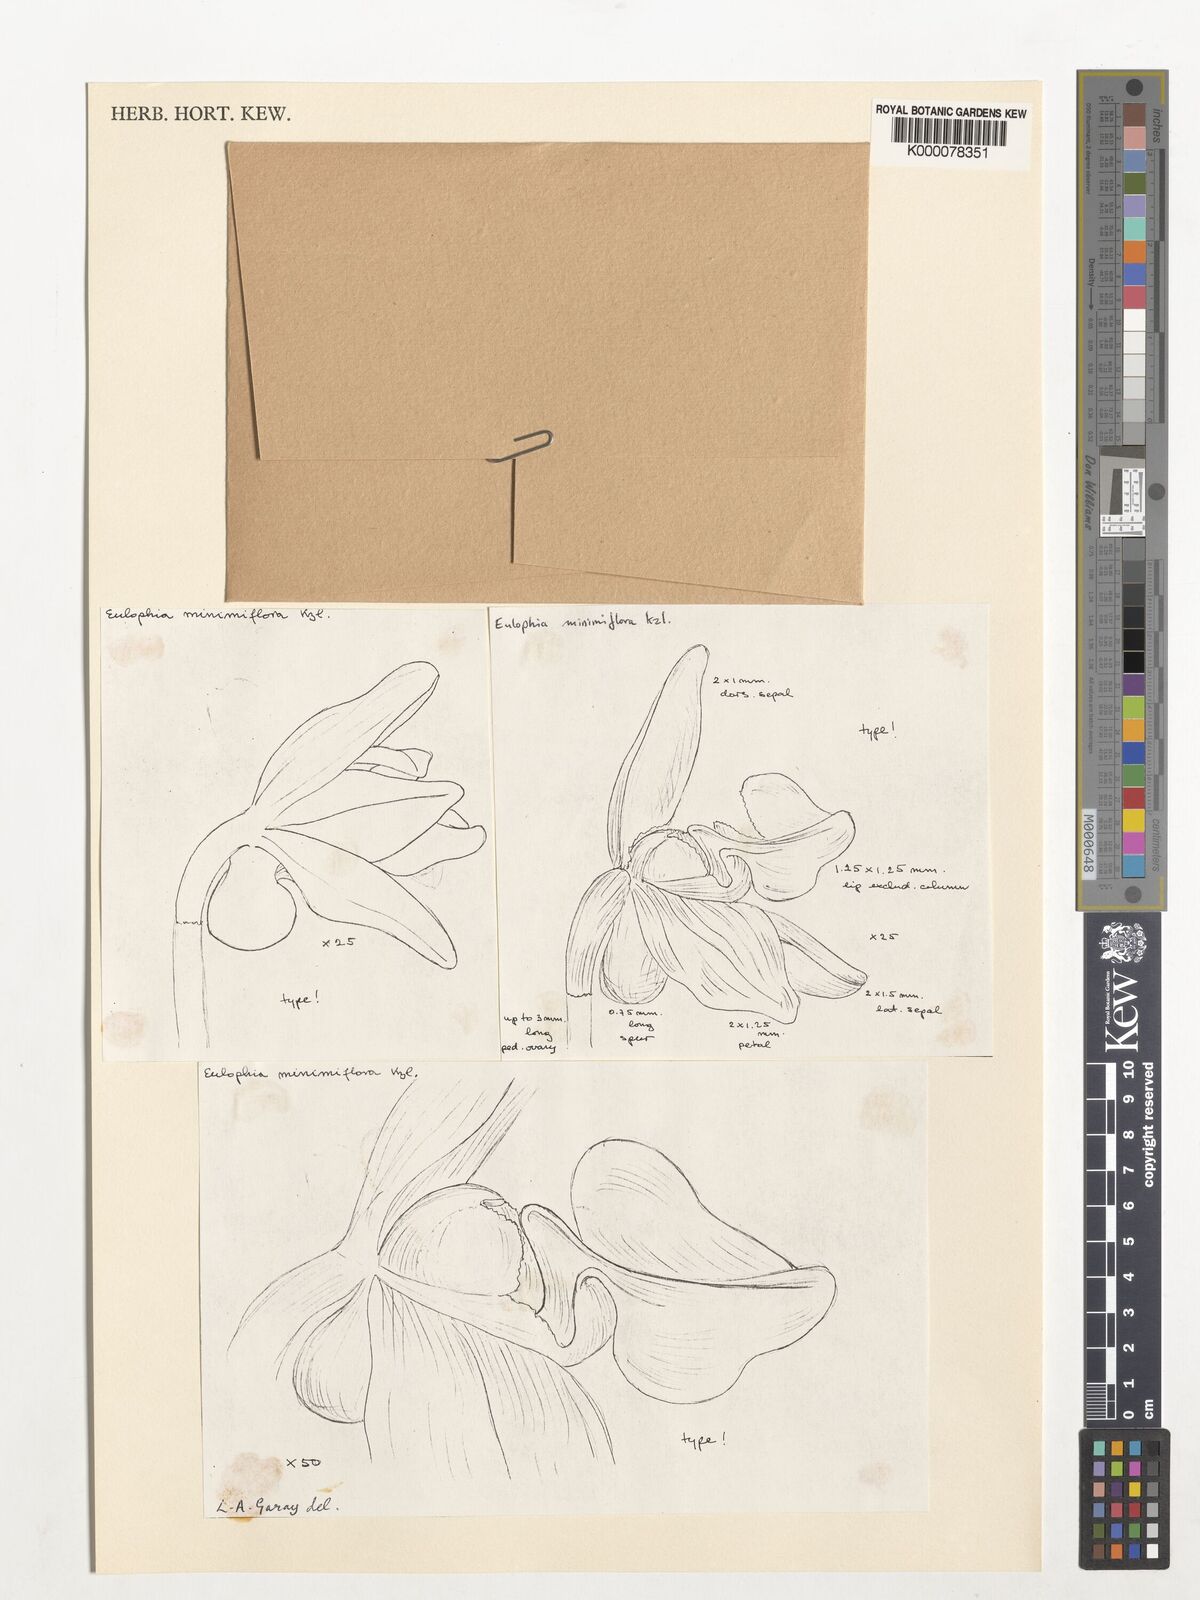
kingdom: Plantae
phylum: Tracheophyta
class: Liliopsida
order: Asparagales
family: Orchidaceae
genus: Peristylus
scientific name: Peristylus minimiflorus
